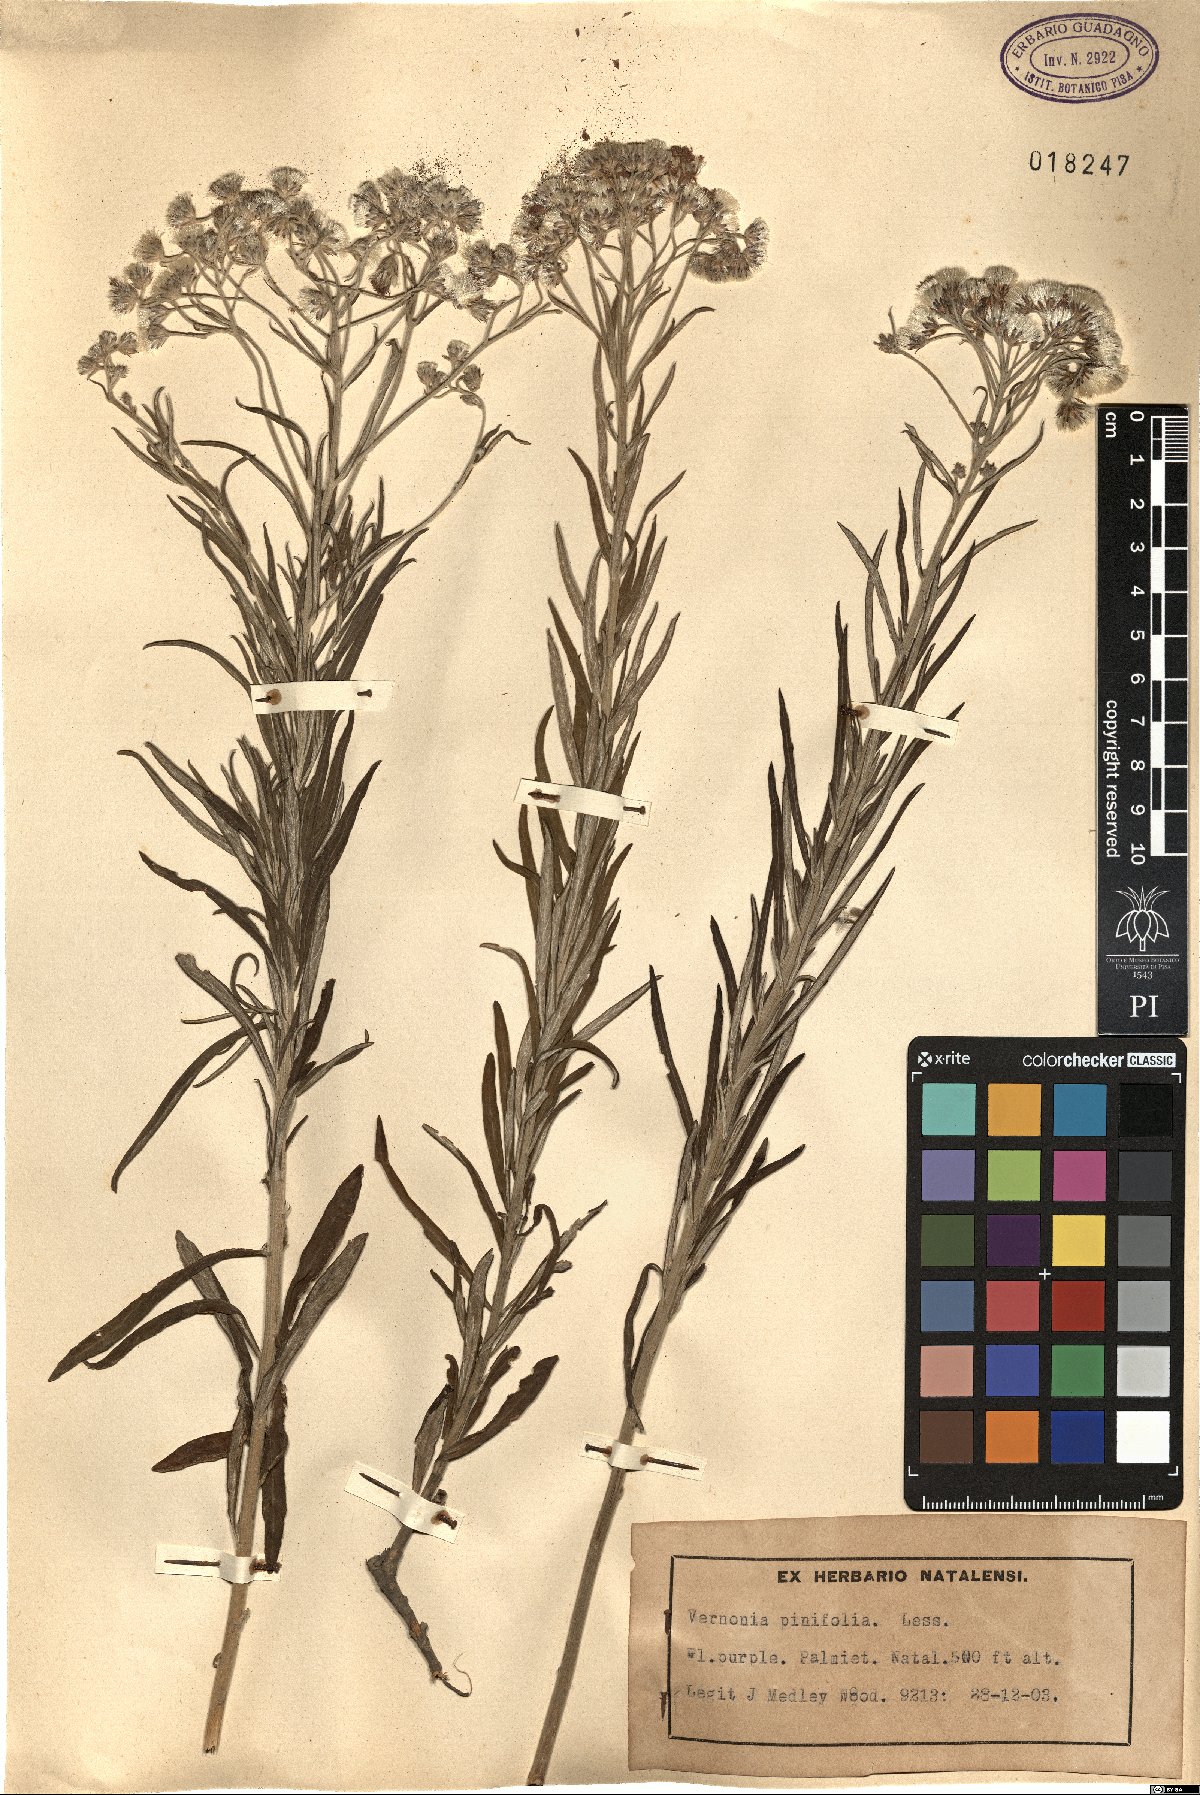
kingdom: Plantae
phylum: Tracheophyta
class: Magnoliopsida
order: Asterales
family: Asteraceae
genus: Hilliardiella
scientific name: Hilliardiella capensis
